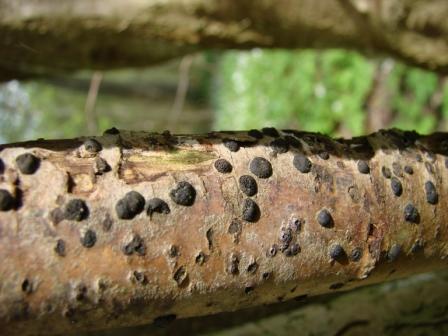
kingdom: Fungi
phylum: Ascomycota
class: Sordariomycetes
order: Xylariales
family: Hypoxylaceae
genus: Hypoxylon
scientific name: Hypoxylon fuscum
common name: kegleformet kulbær
